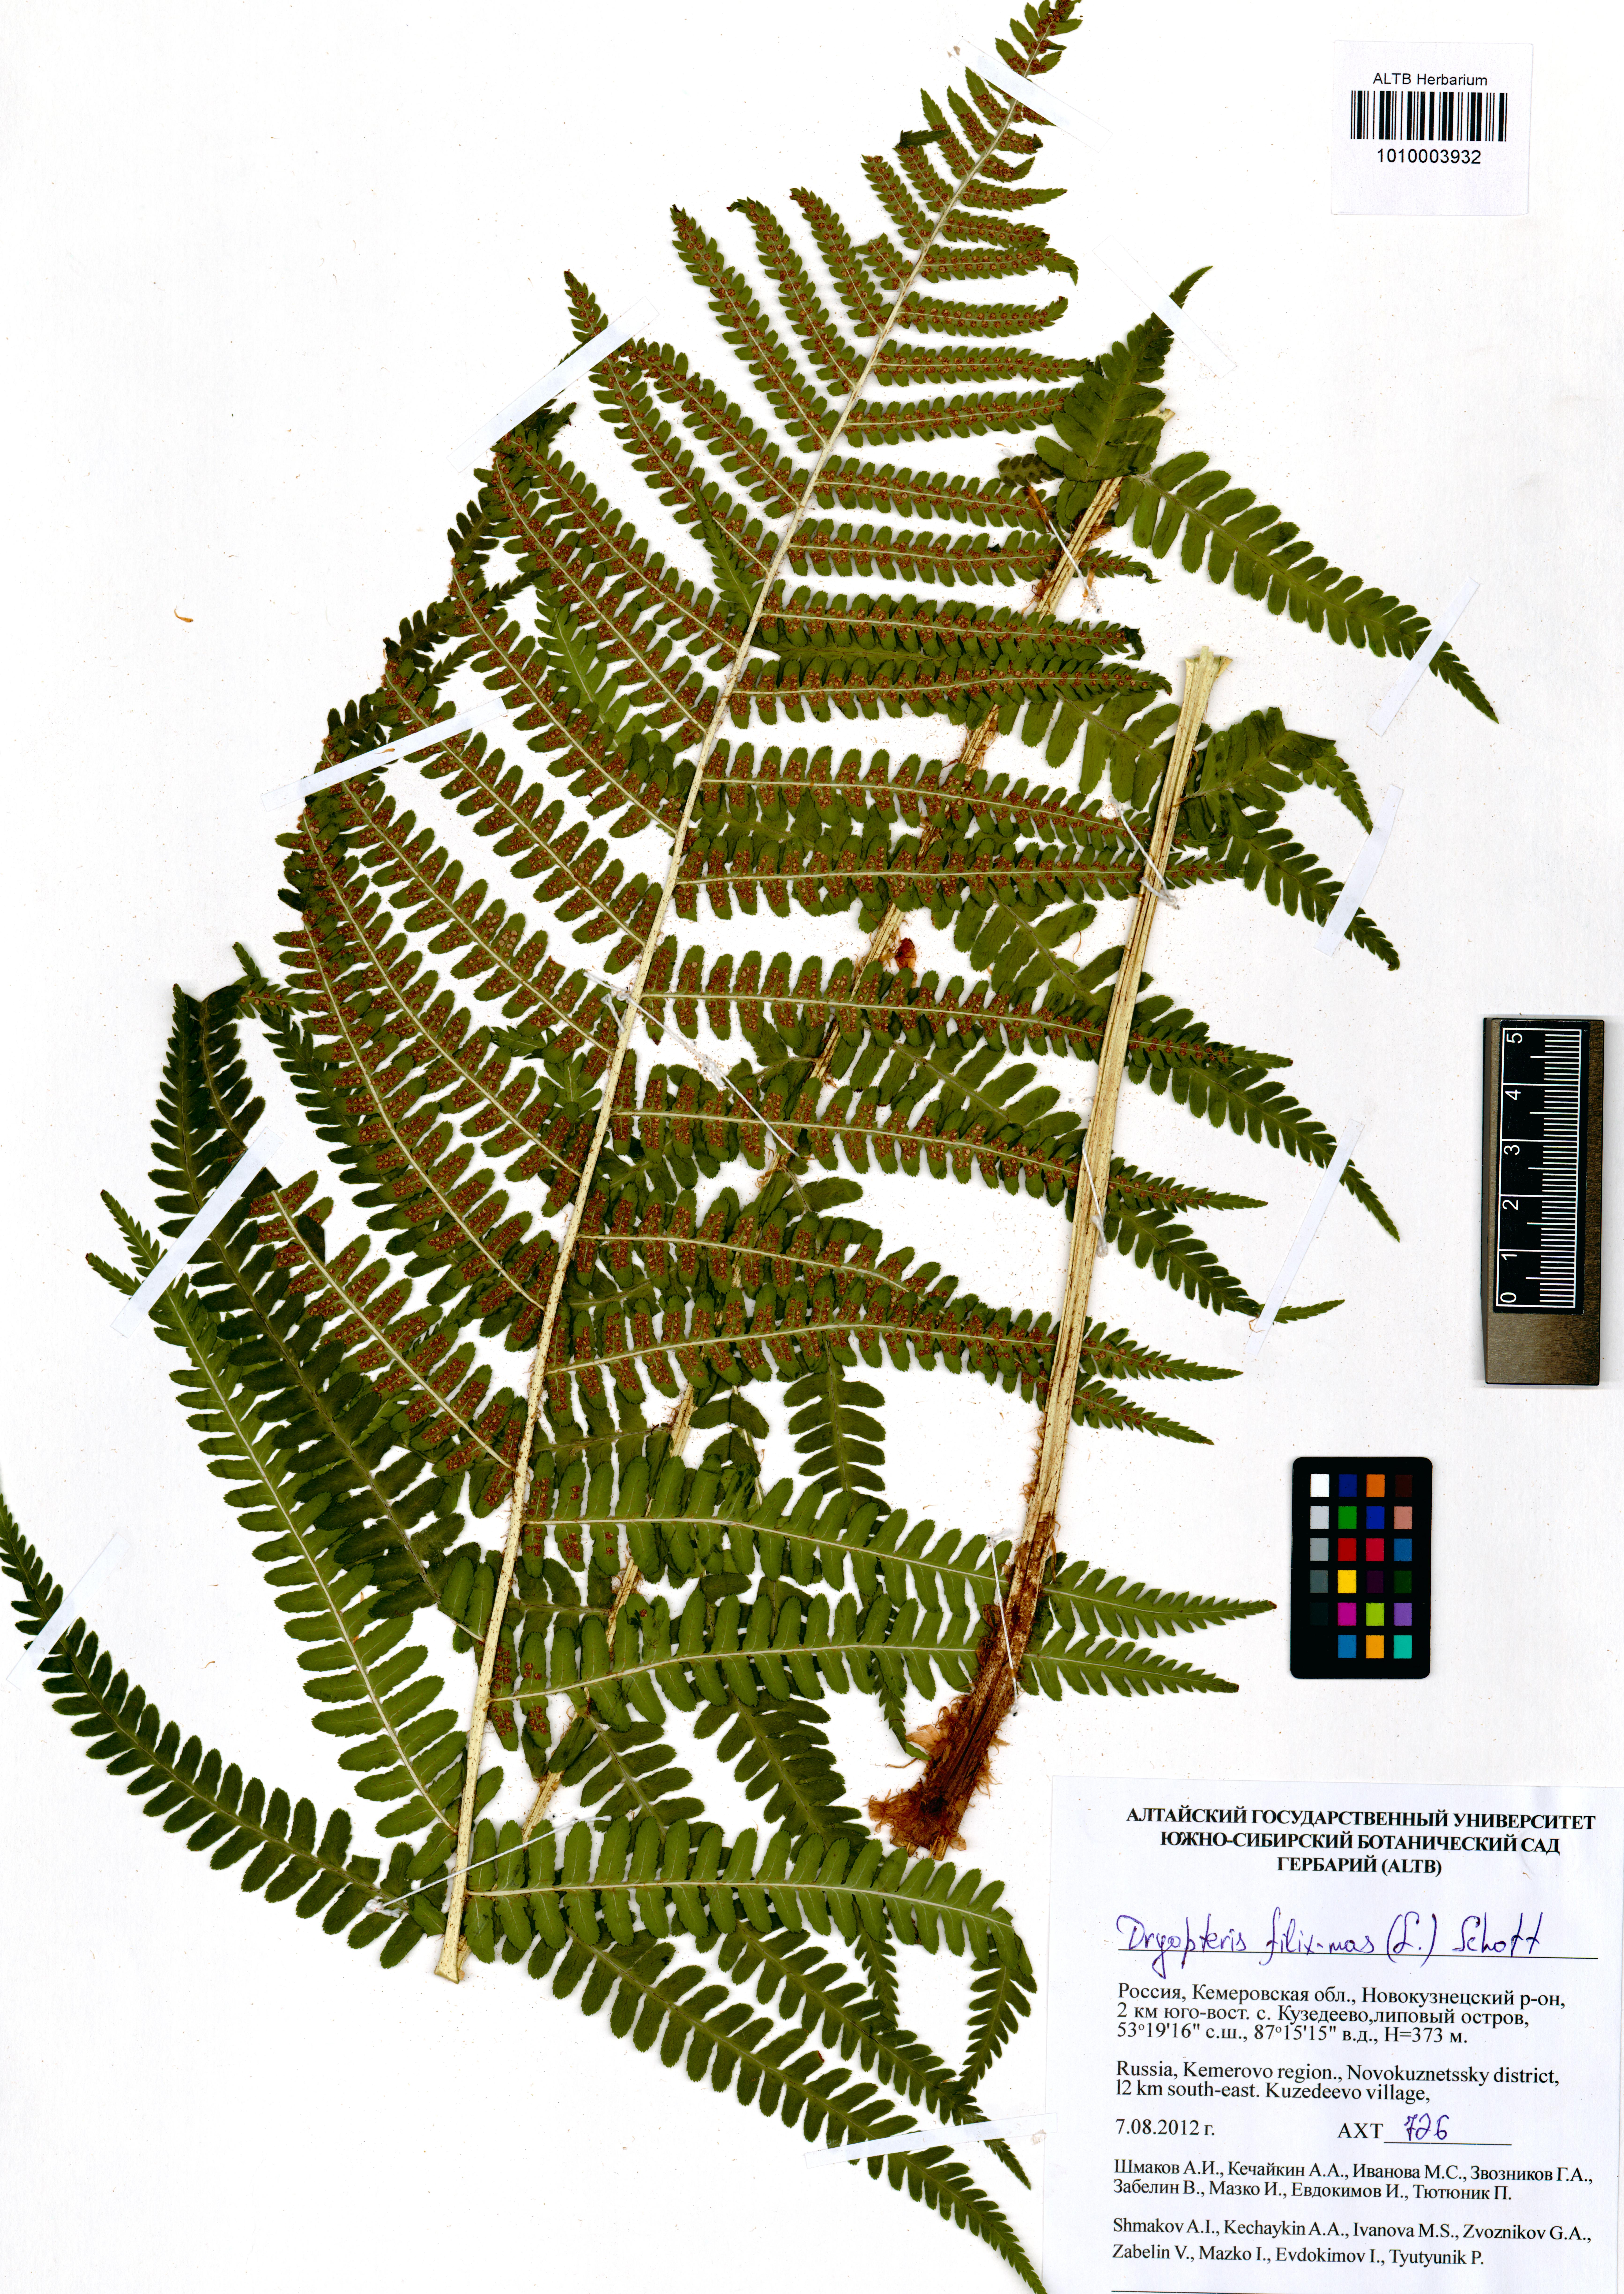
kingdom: Plantae
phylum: Tracheophyta
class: Polypodiopsida
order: Polypodiales
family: Dryopteridaceae
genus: Dryopteris
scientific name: Dryopteris filix-mas
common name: Male fern
